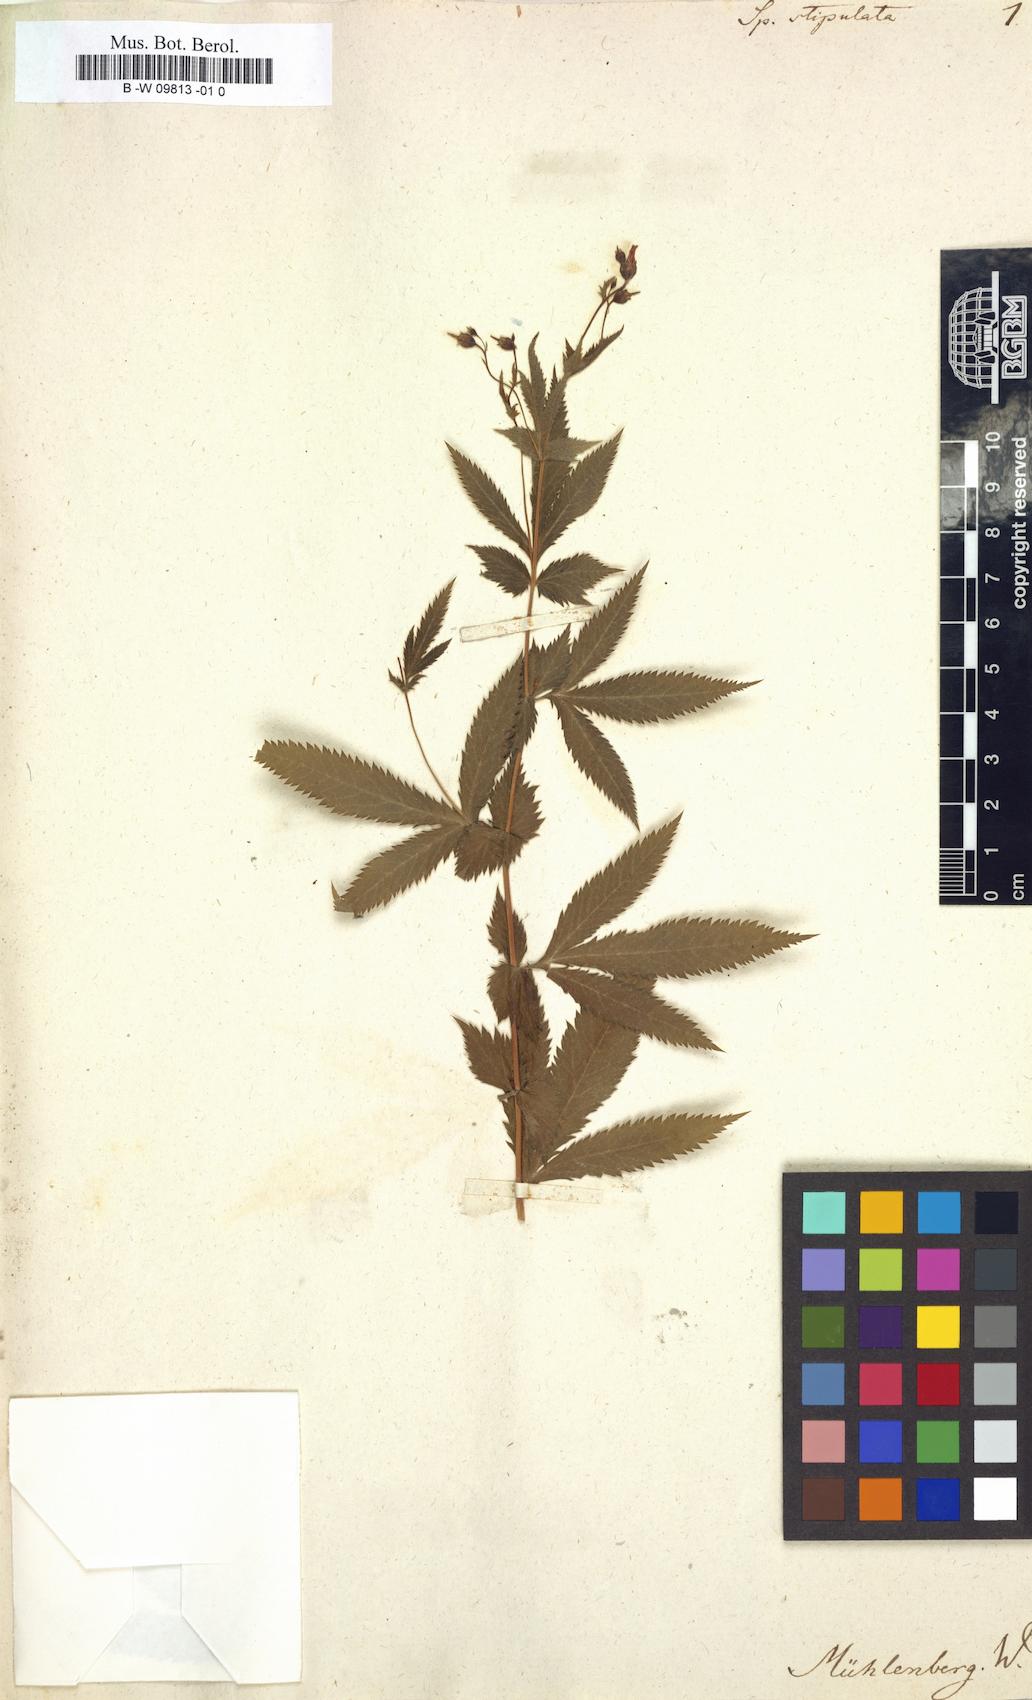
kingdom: Plantae
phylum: Tracheophyta
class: Magnoliopsida
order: Rosales
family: Rosaceae
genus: Gillenia
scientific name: Gillenia stipulata
